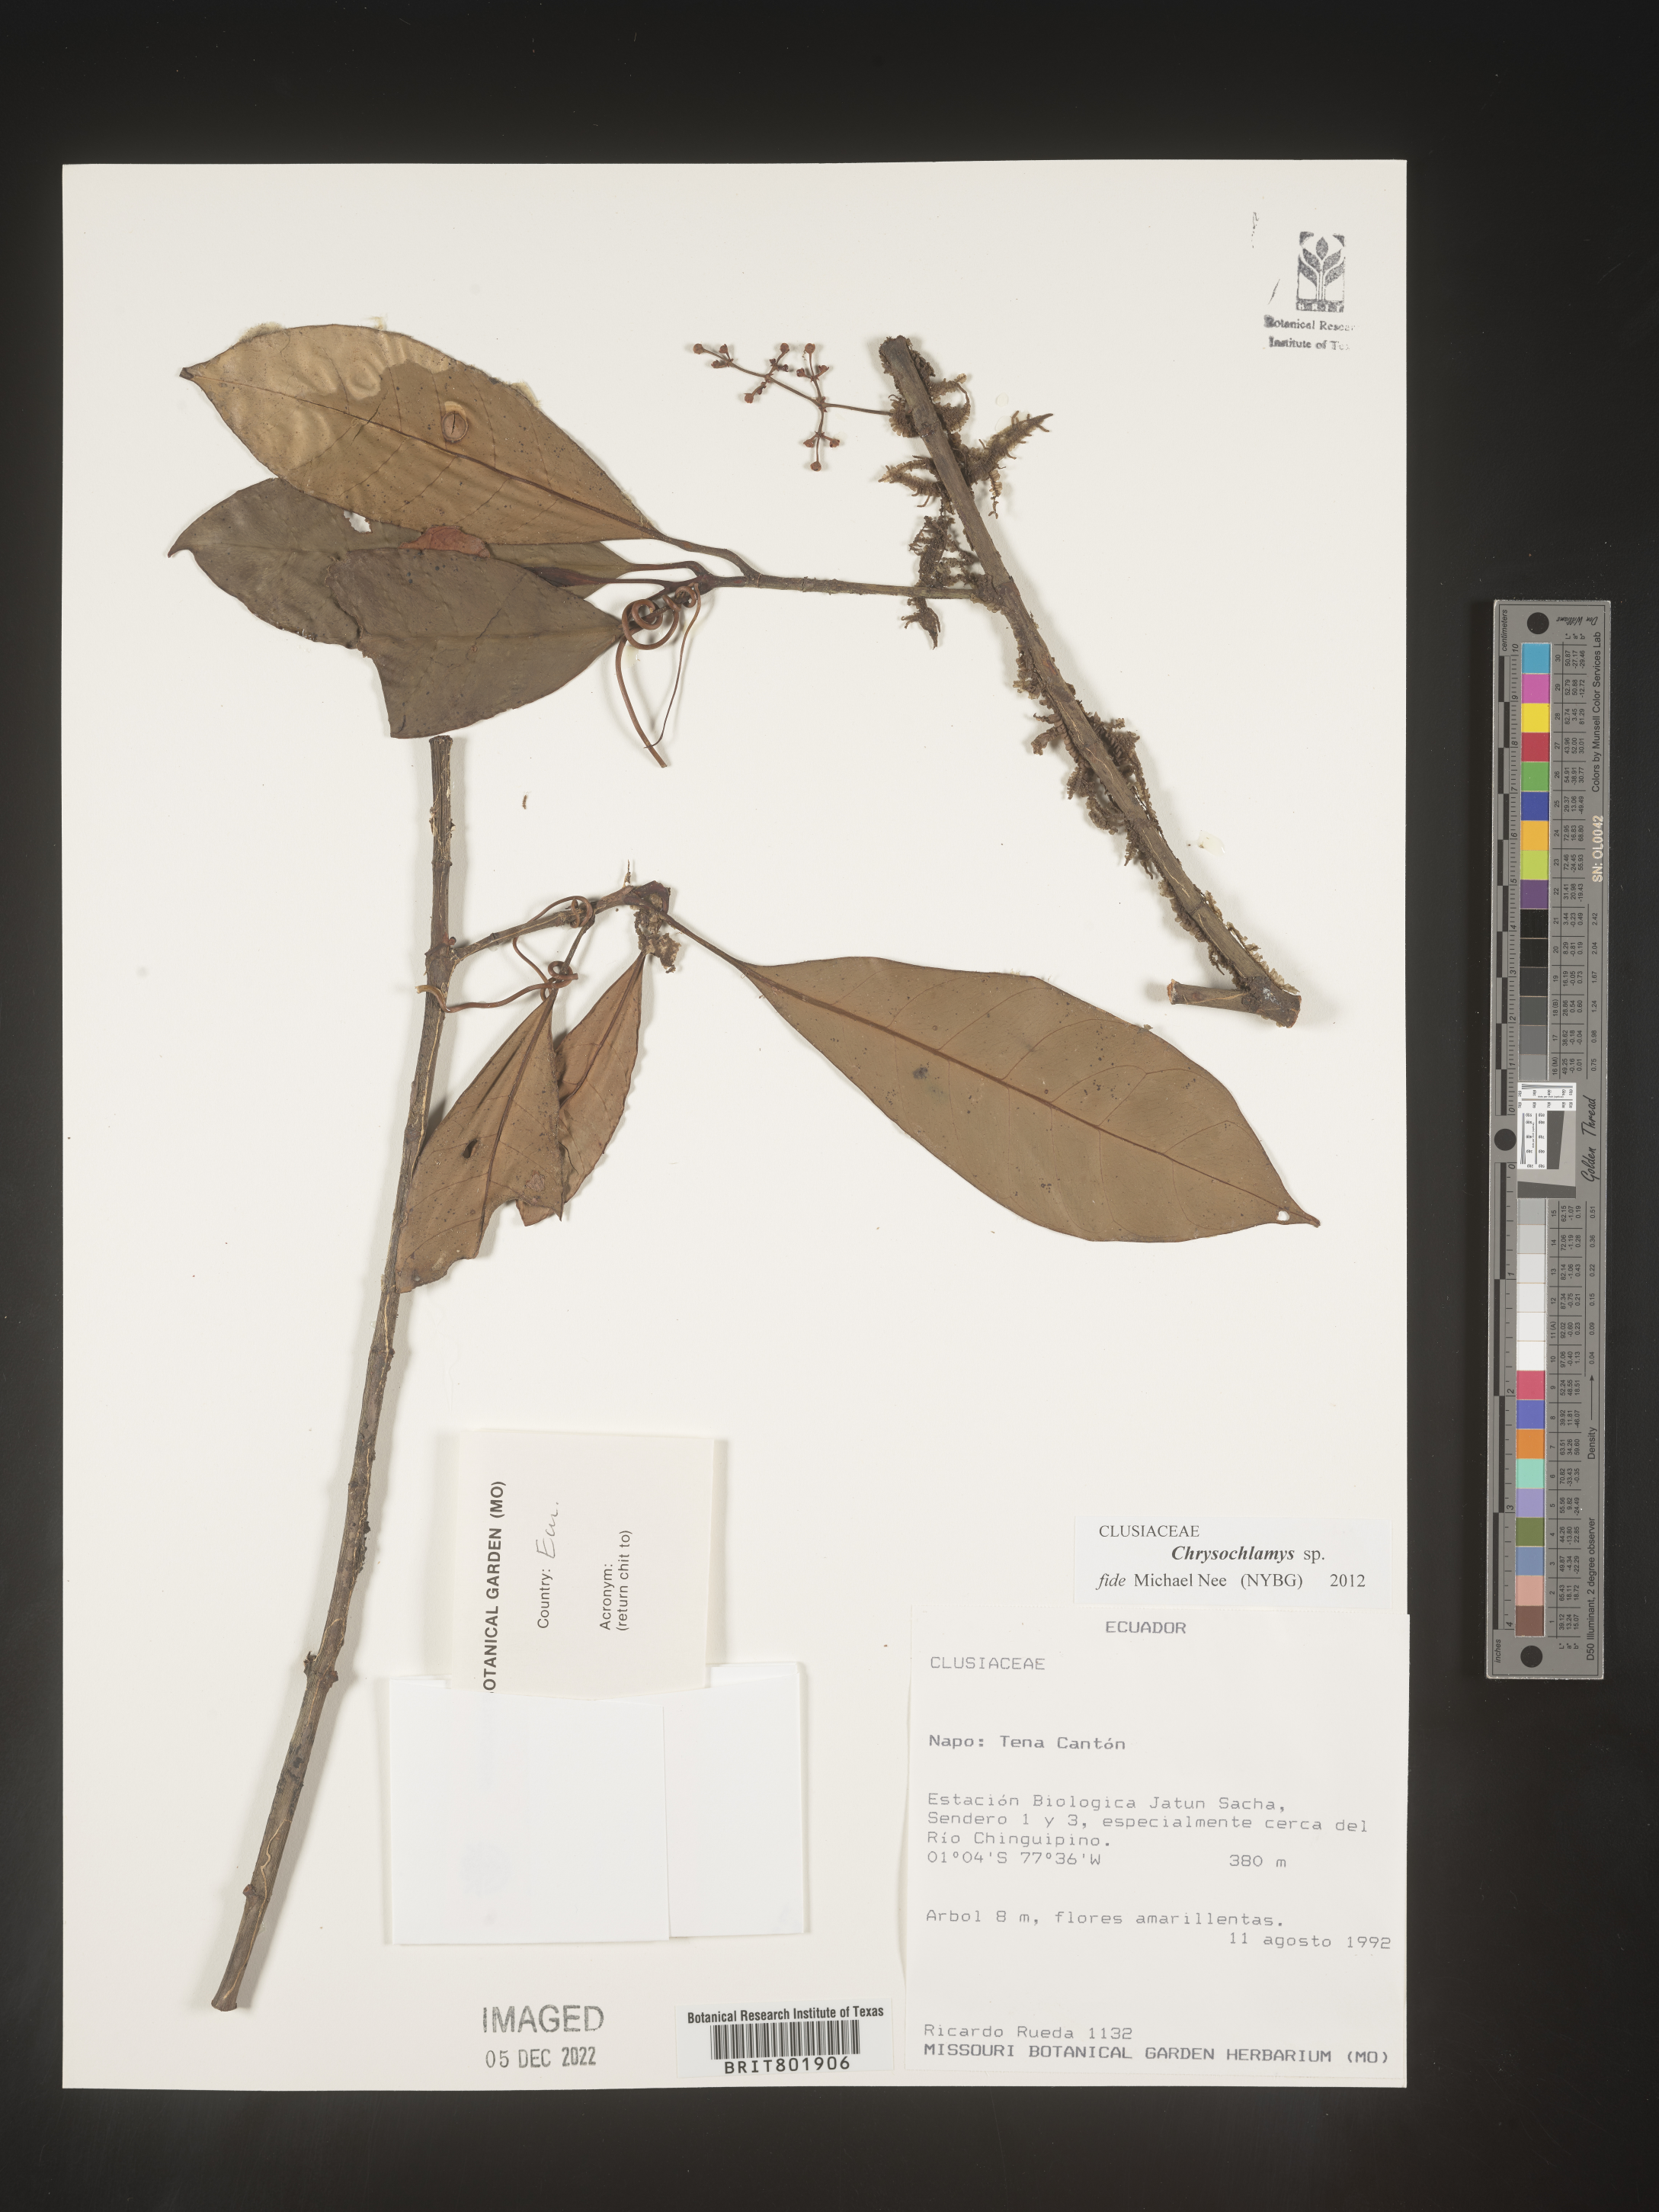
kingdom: Plantae
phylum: Tracheophyta
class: Magnoliopsida
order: Malpighiales
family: Clusiaceae
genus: Chrysochlamys
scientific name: Chrysochlamys
